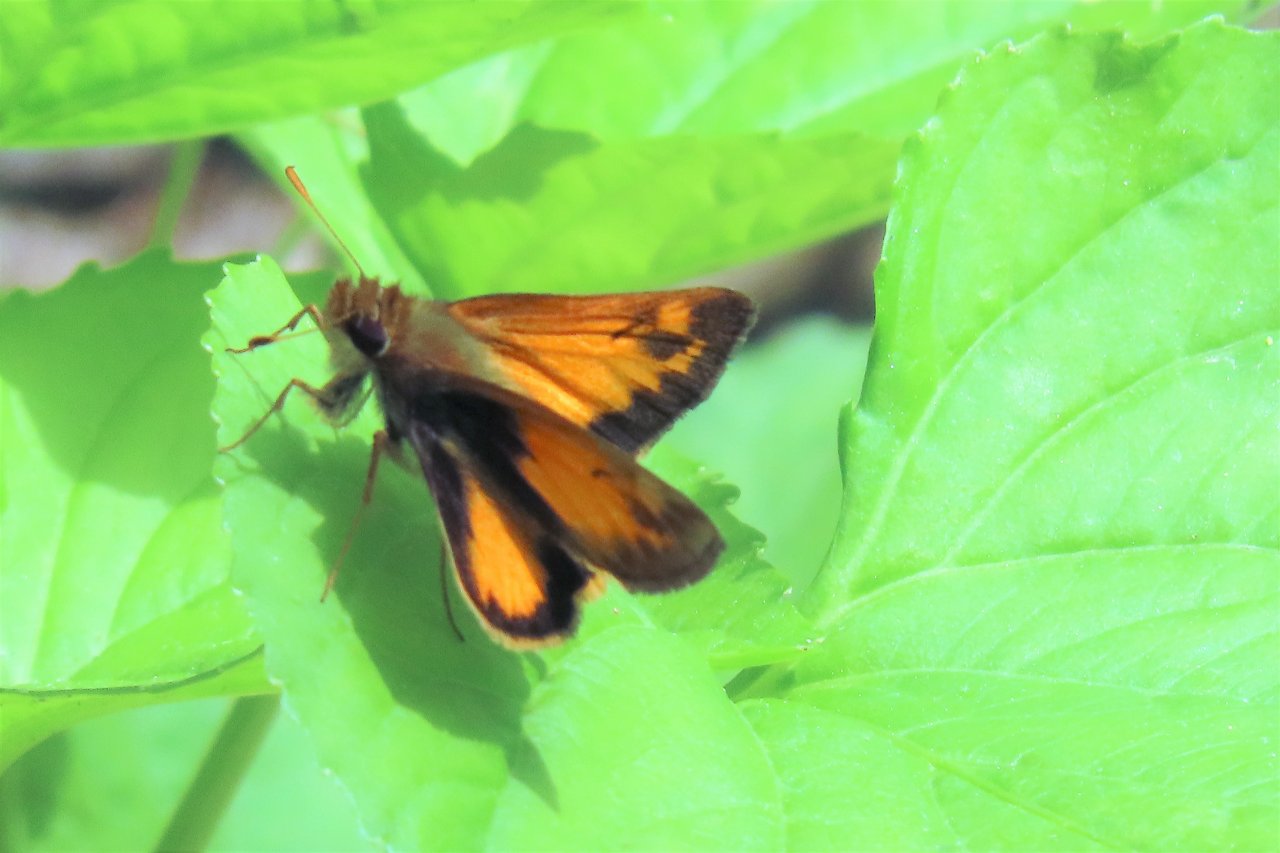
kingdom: Animalia
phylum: Arthropoda
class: Insecta
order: Lepidoptera
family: Hesperiidae
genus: Lon
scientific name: Lon zabulon
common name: Zabulon Skipper
